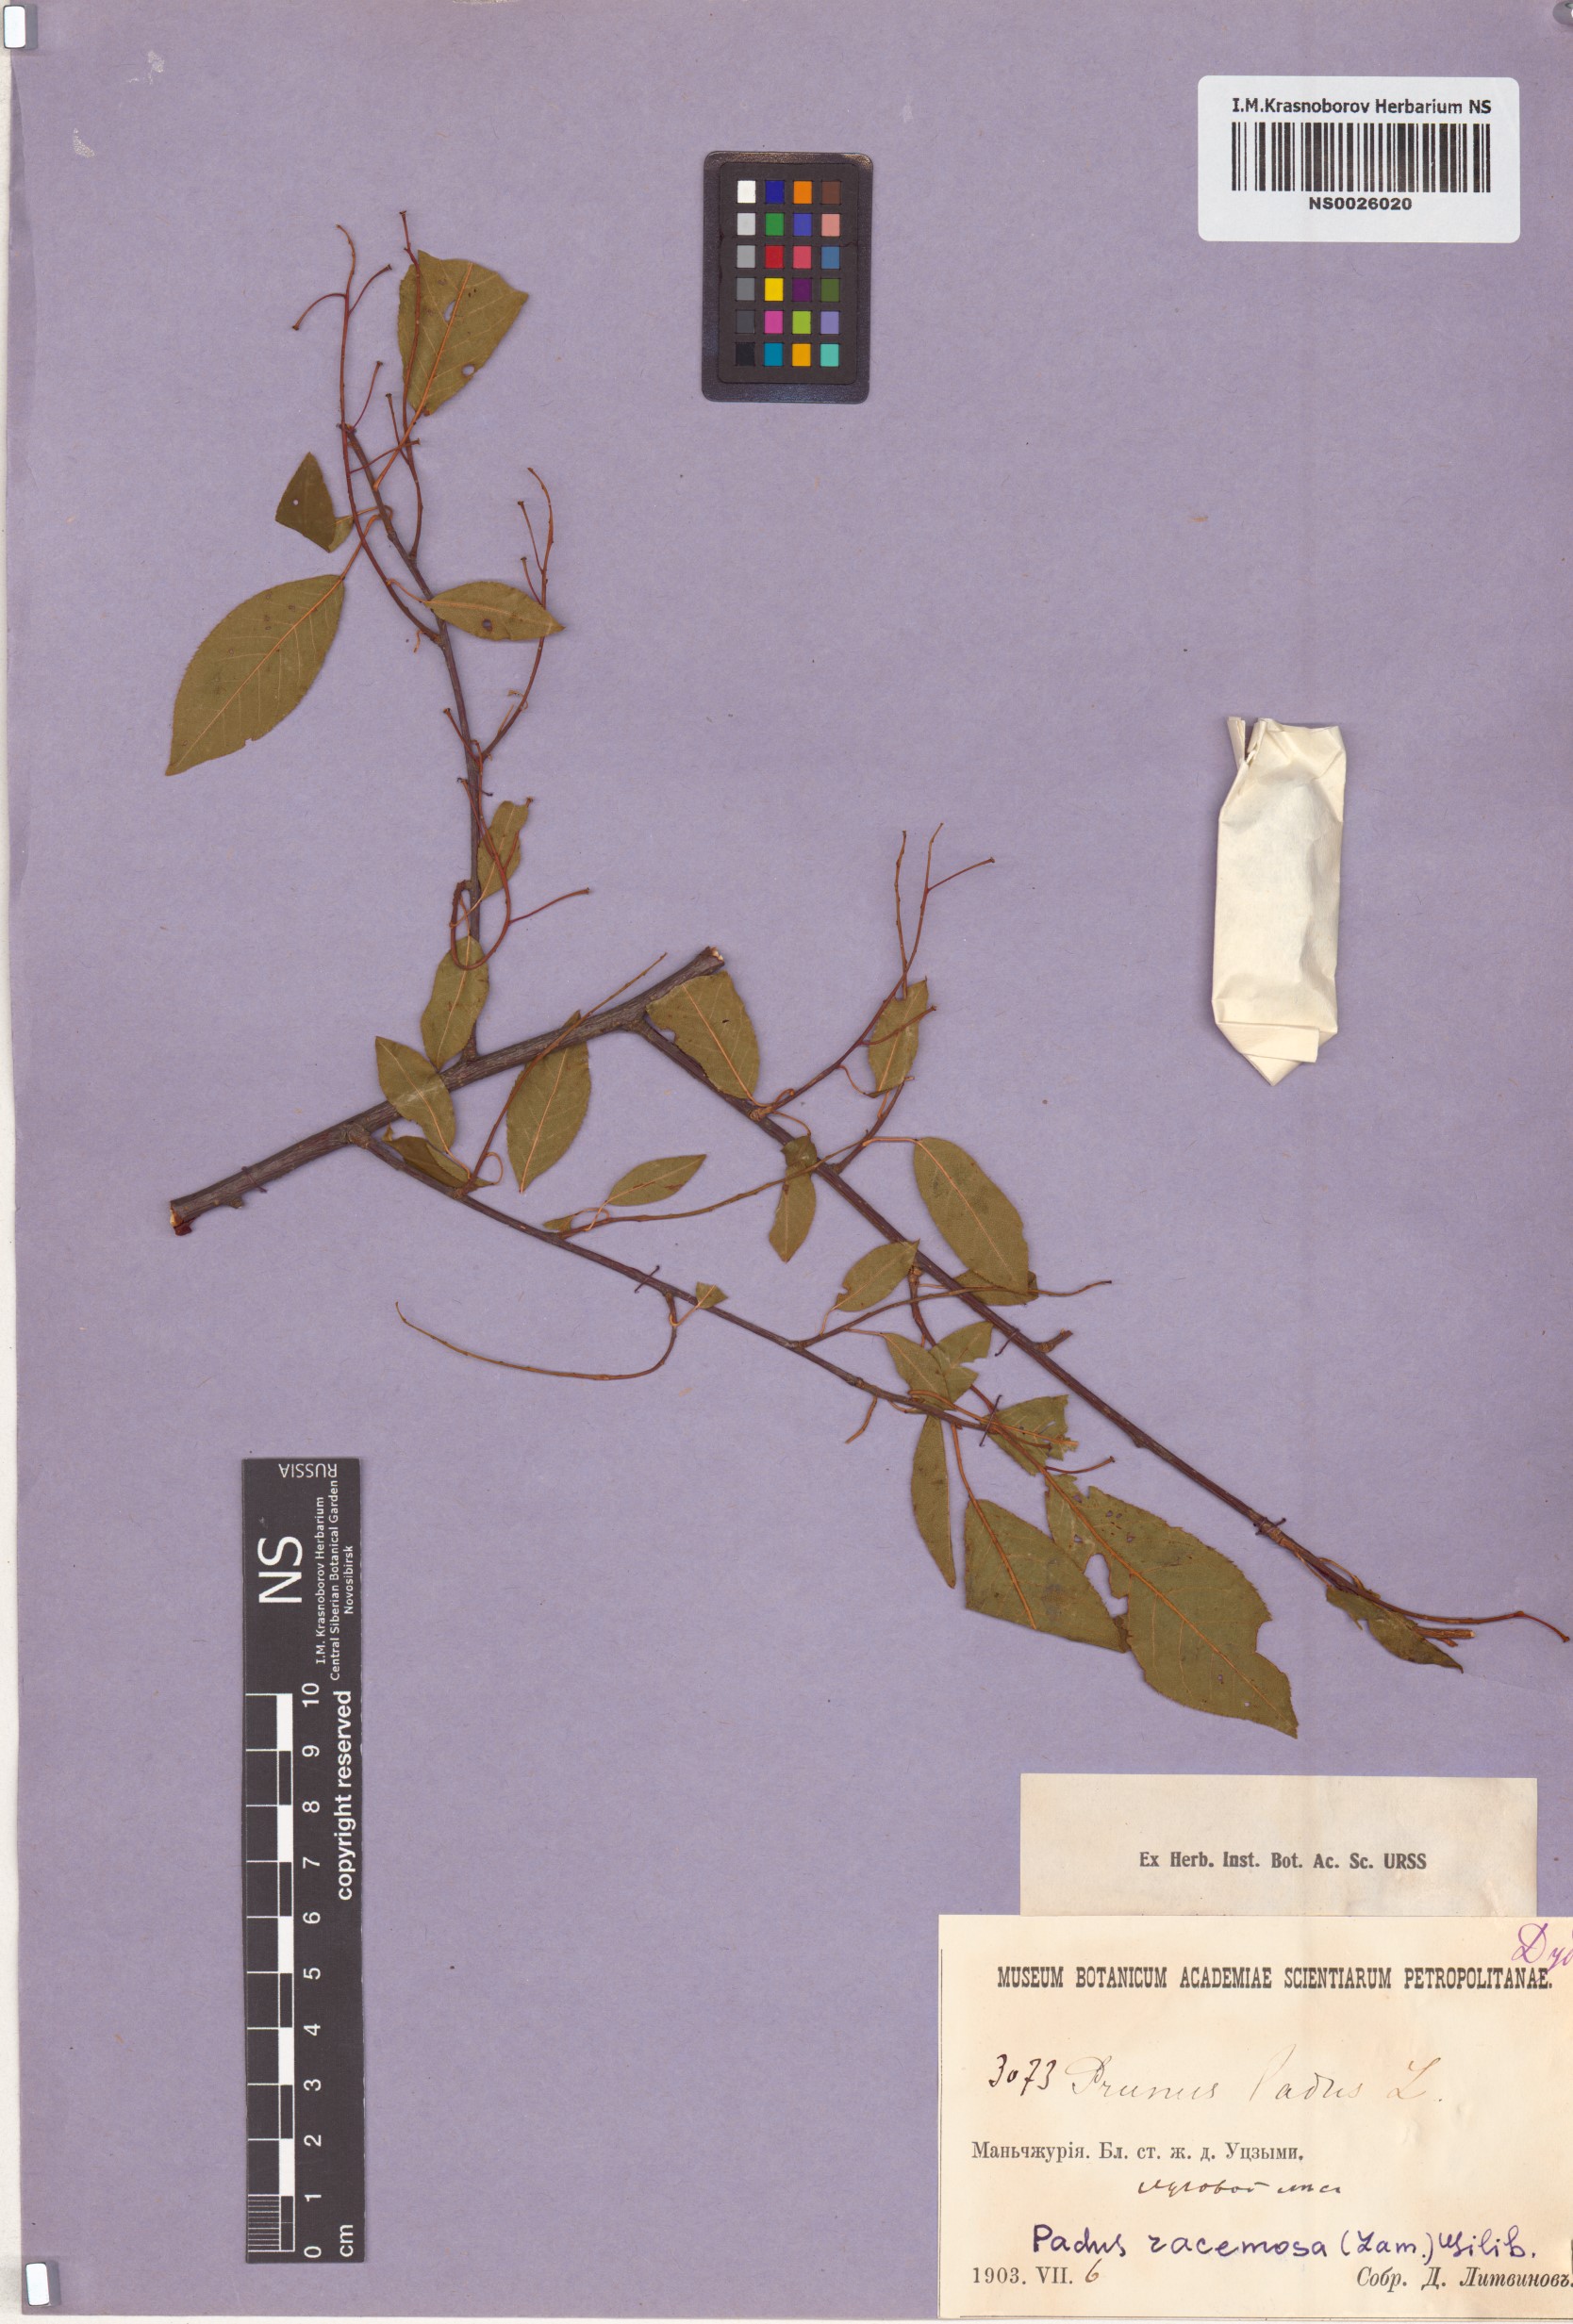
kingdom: Plantae
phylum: Tracheophyta
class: Magnoliopsida
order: Rosales
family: Rosaceae
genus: Prunus
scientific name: Prunus padus
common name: Bird cherry
